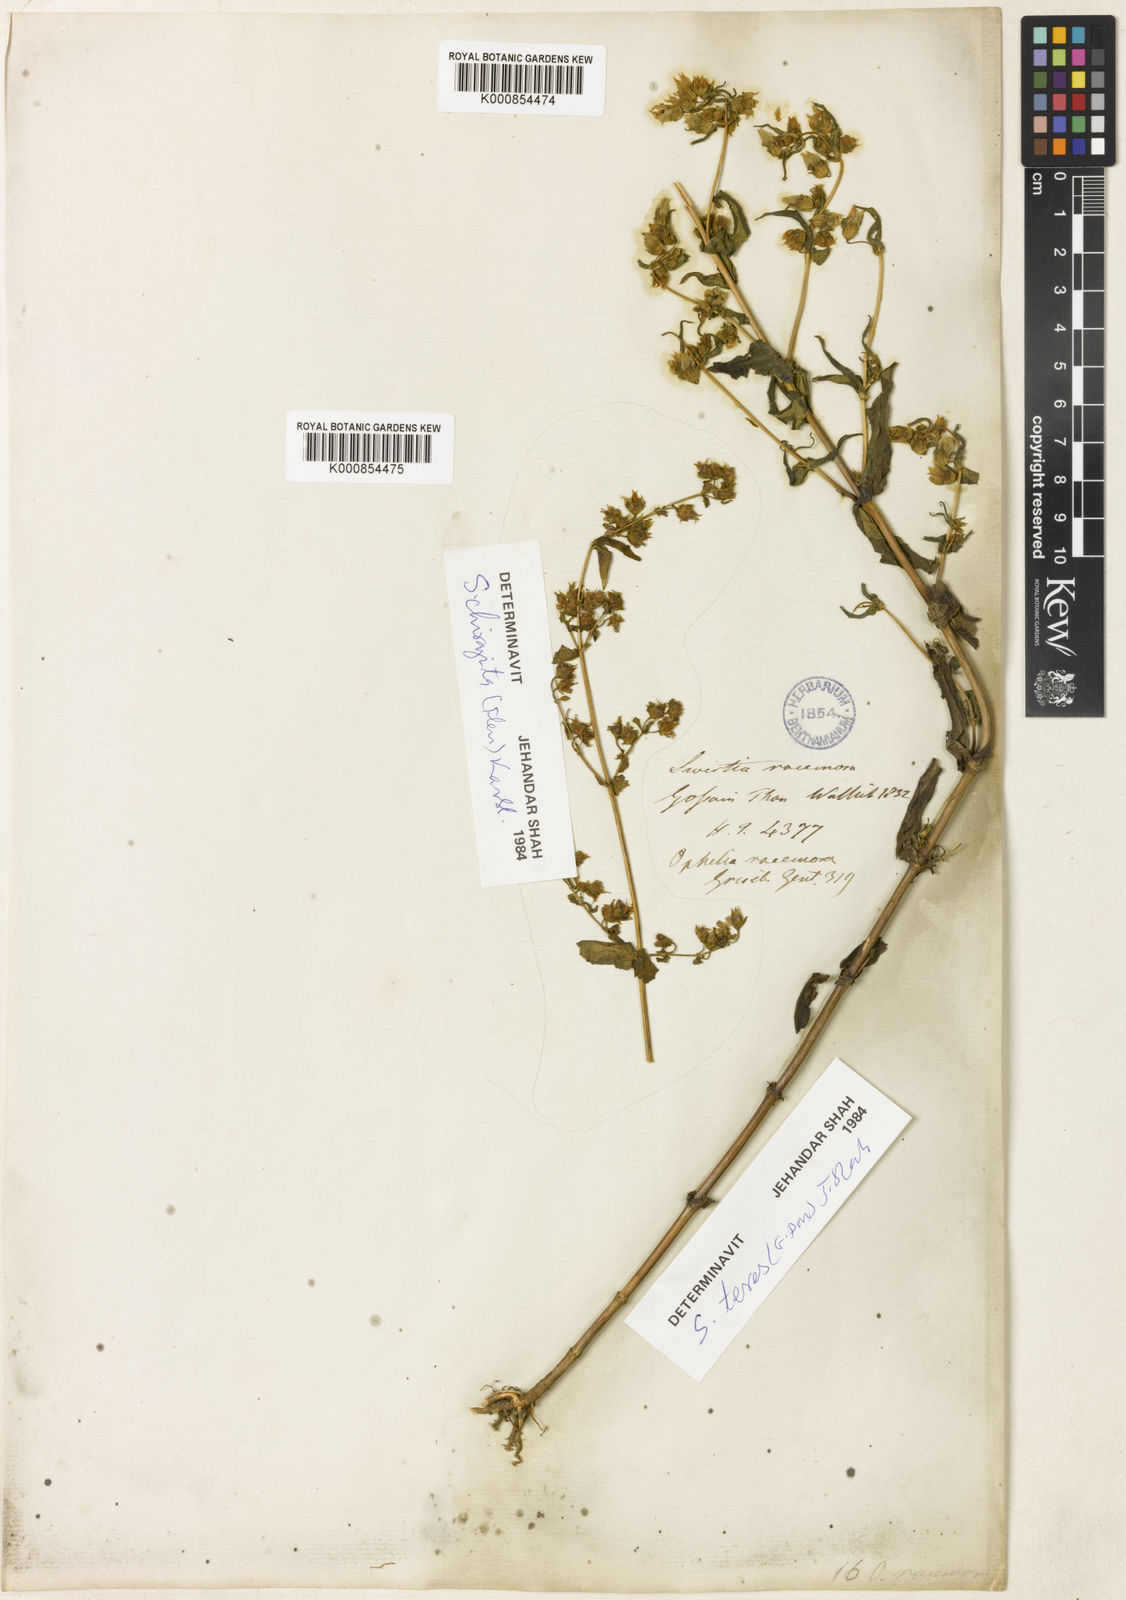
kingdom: Plantae
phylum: Tracheophyta
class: Magnoliopsida
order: Gentianales
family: Gentianaceae
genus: Swertia
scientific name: Swertia purpurascens
